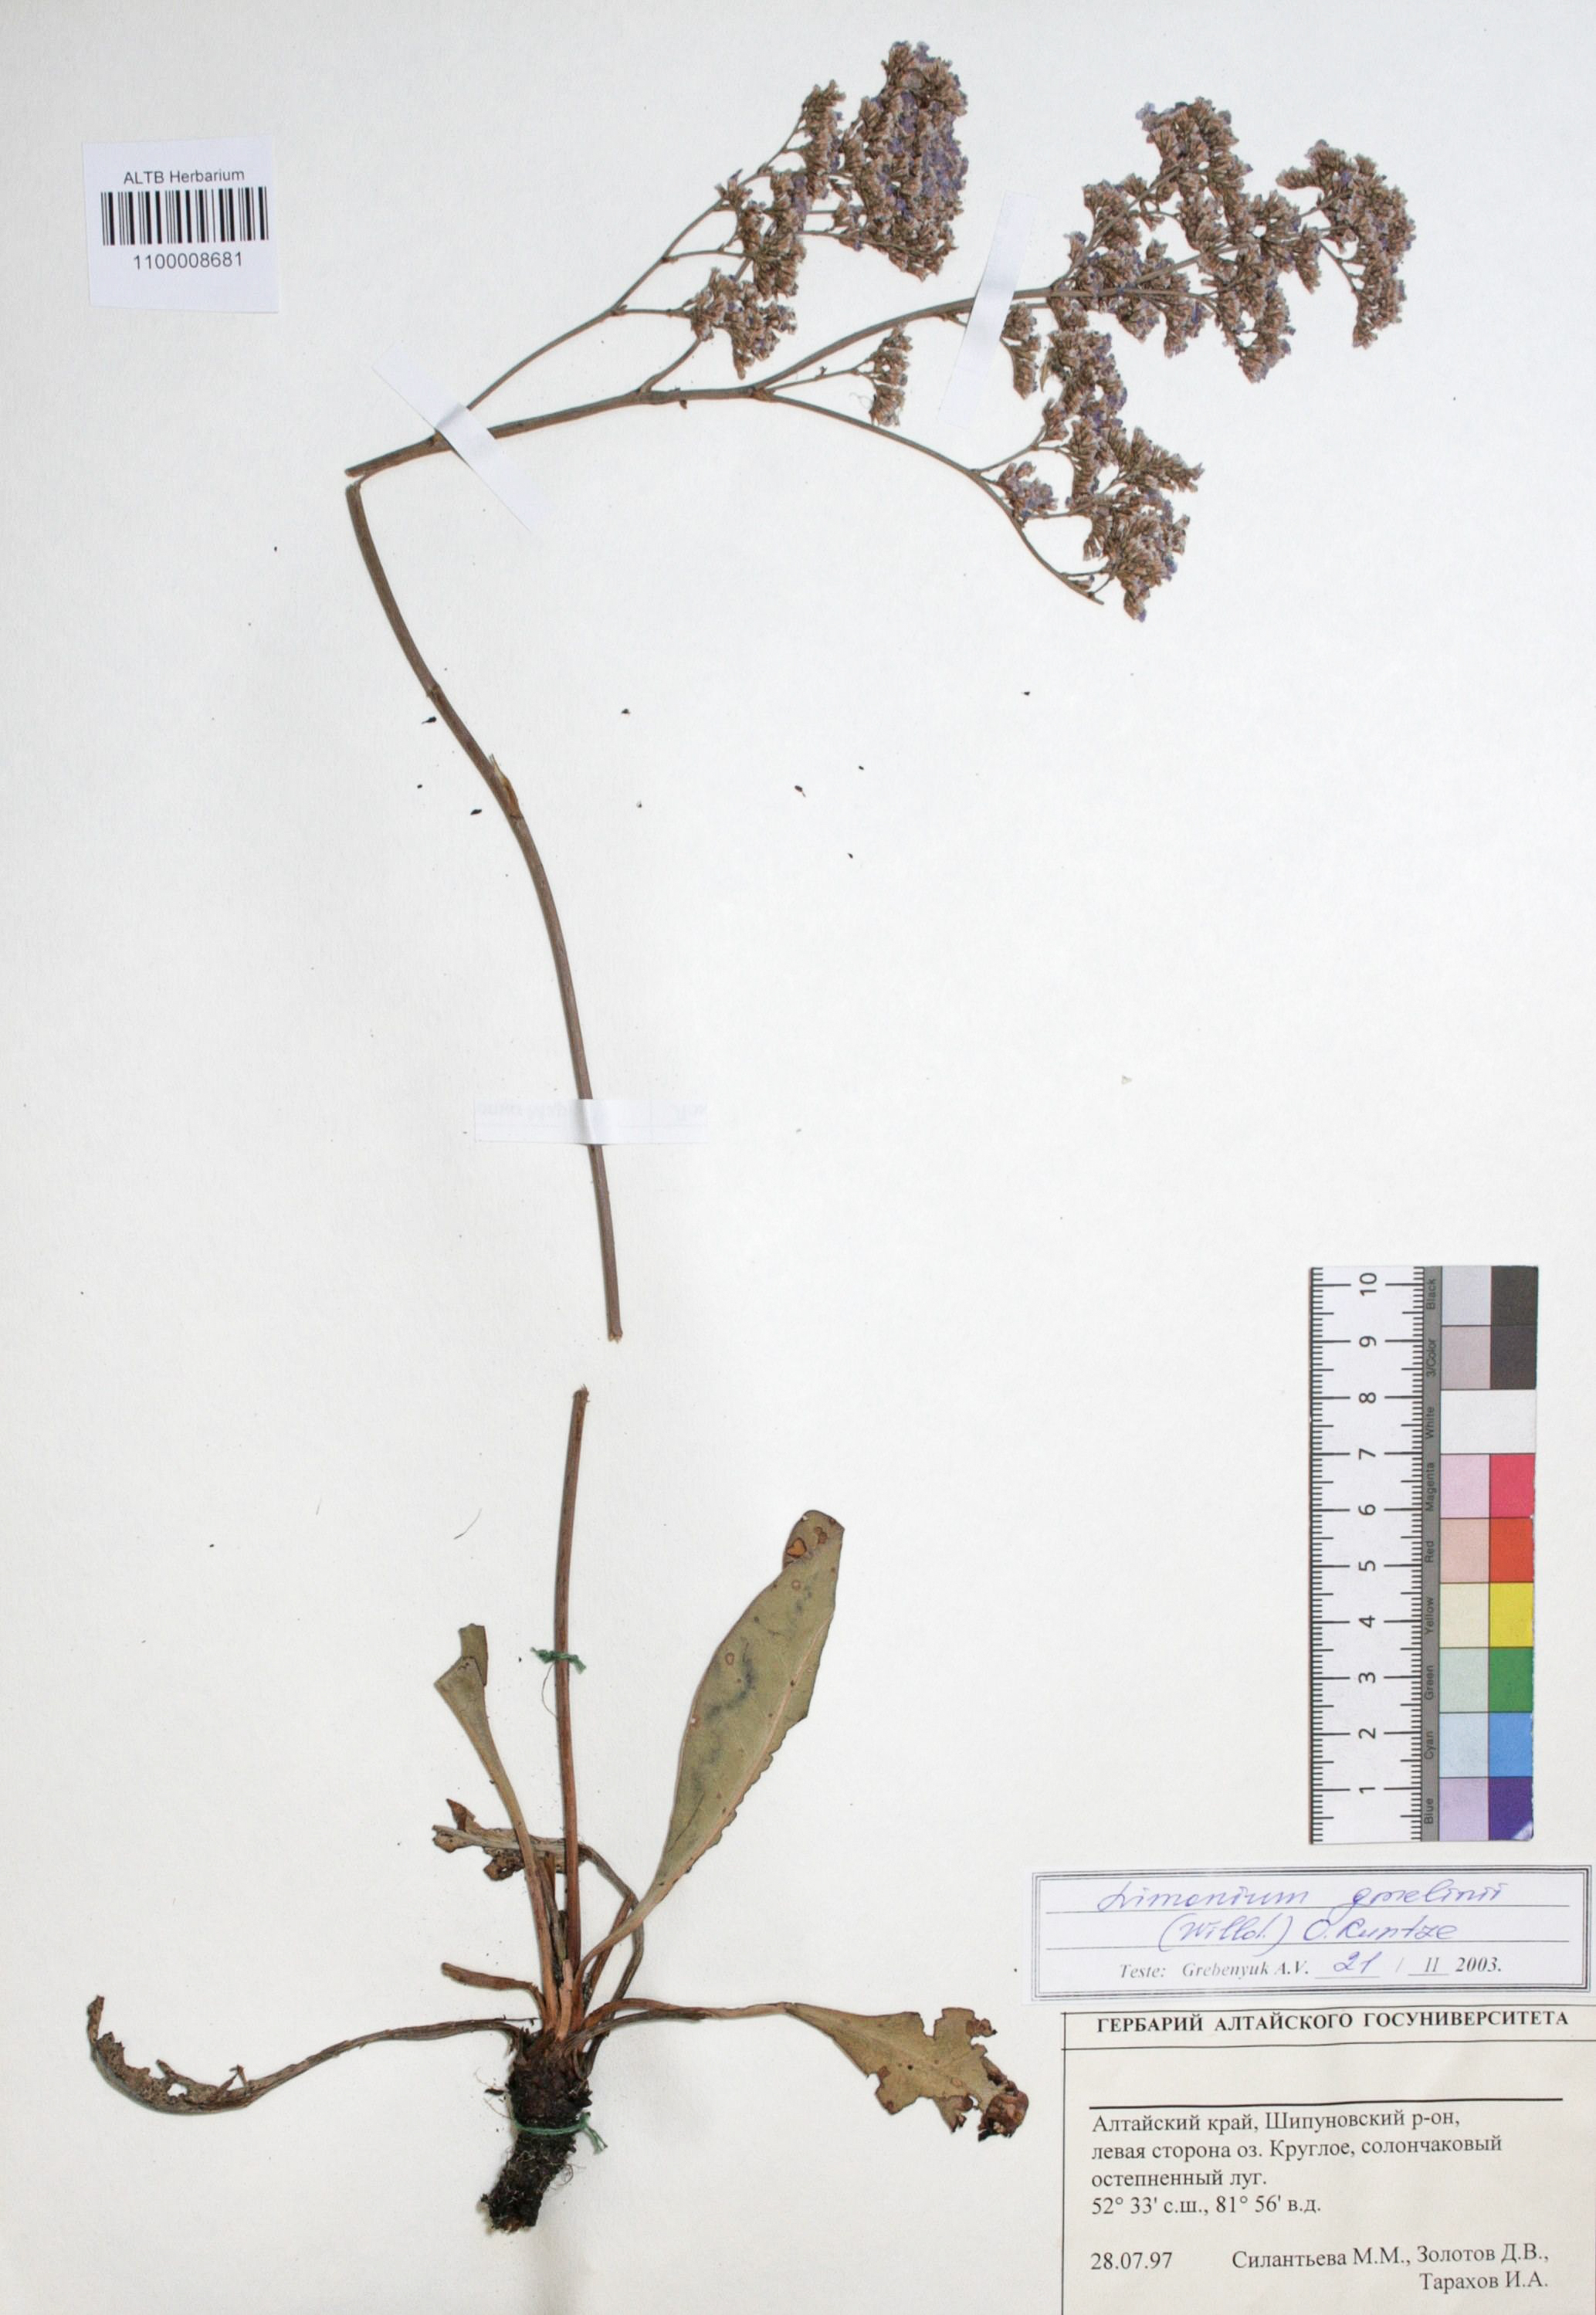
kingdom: Plantae
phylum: Tracheophyta
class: Magnoliopsida
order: Caryophyllales
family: Plumbaginaceae
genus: Limonium
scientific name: Limonium gmelini
